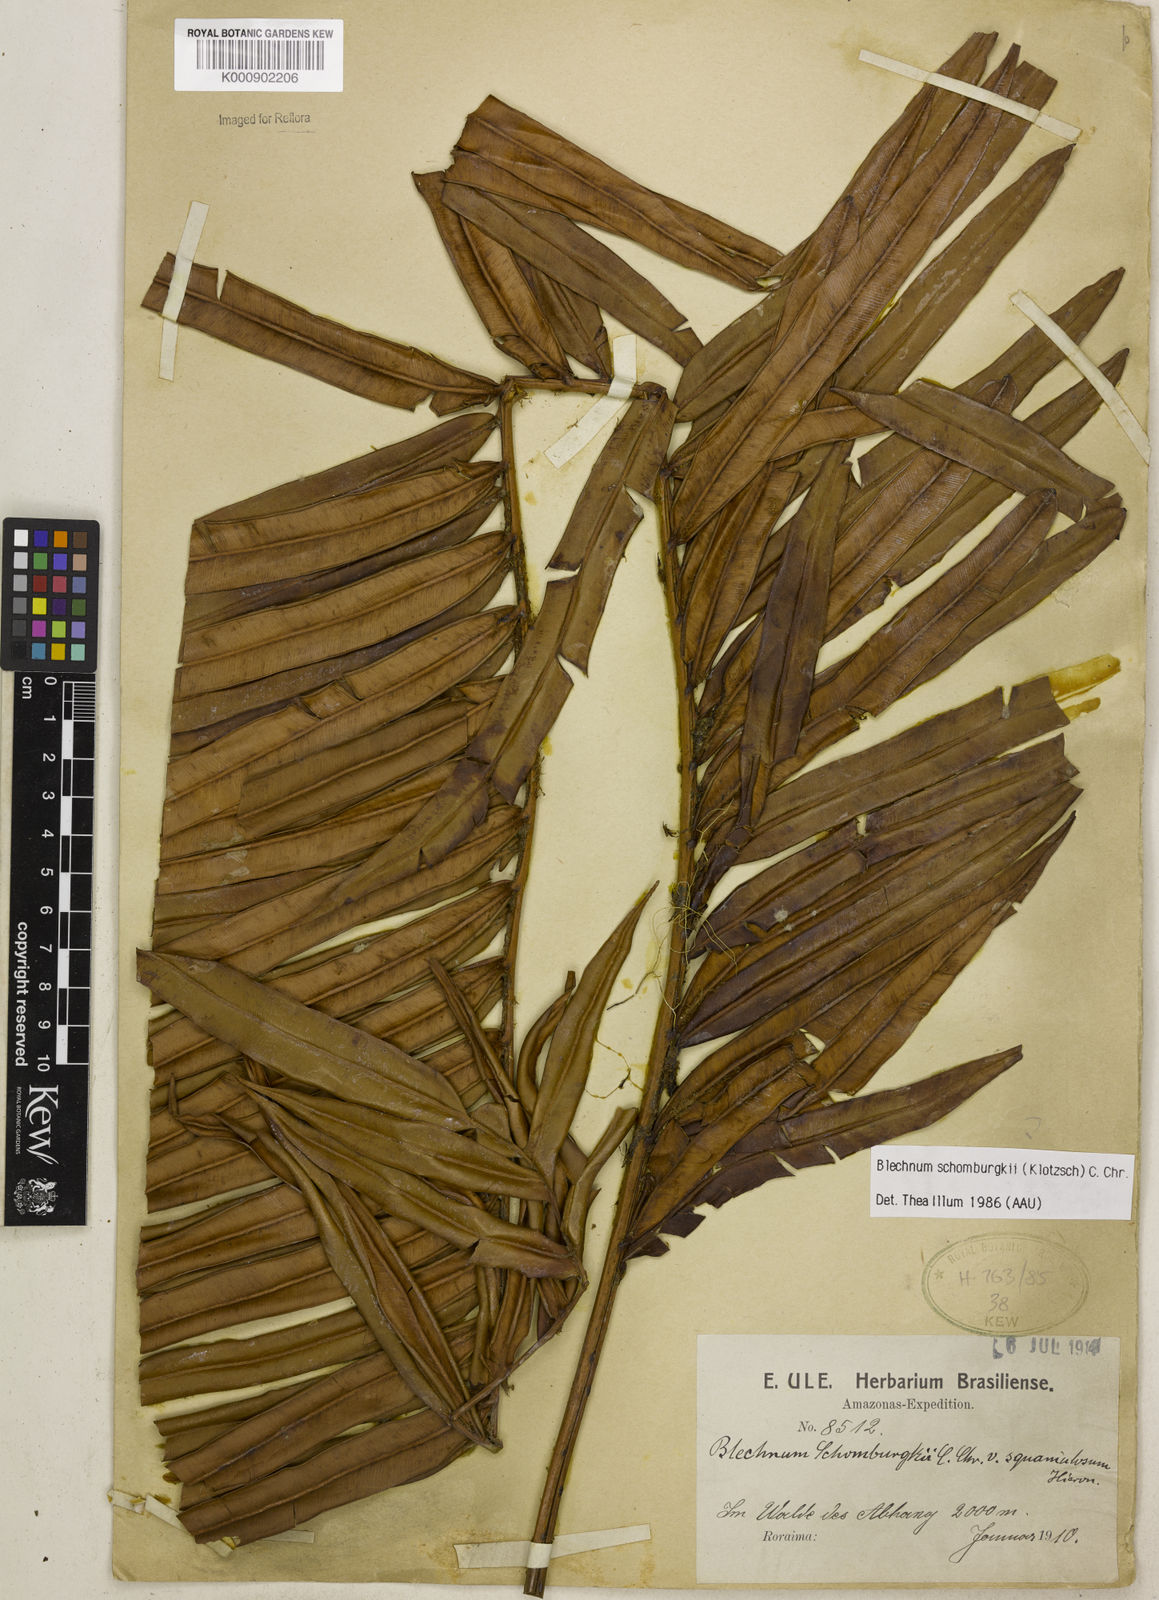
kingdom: Plantae
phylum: Tracheophyta
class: Polypodiopsida
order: Polypodiales
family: Blechnaceae
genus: Lomariocycas
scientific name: Lomariocycas schomburgkii
